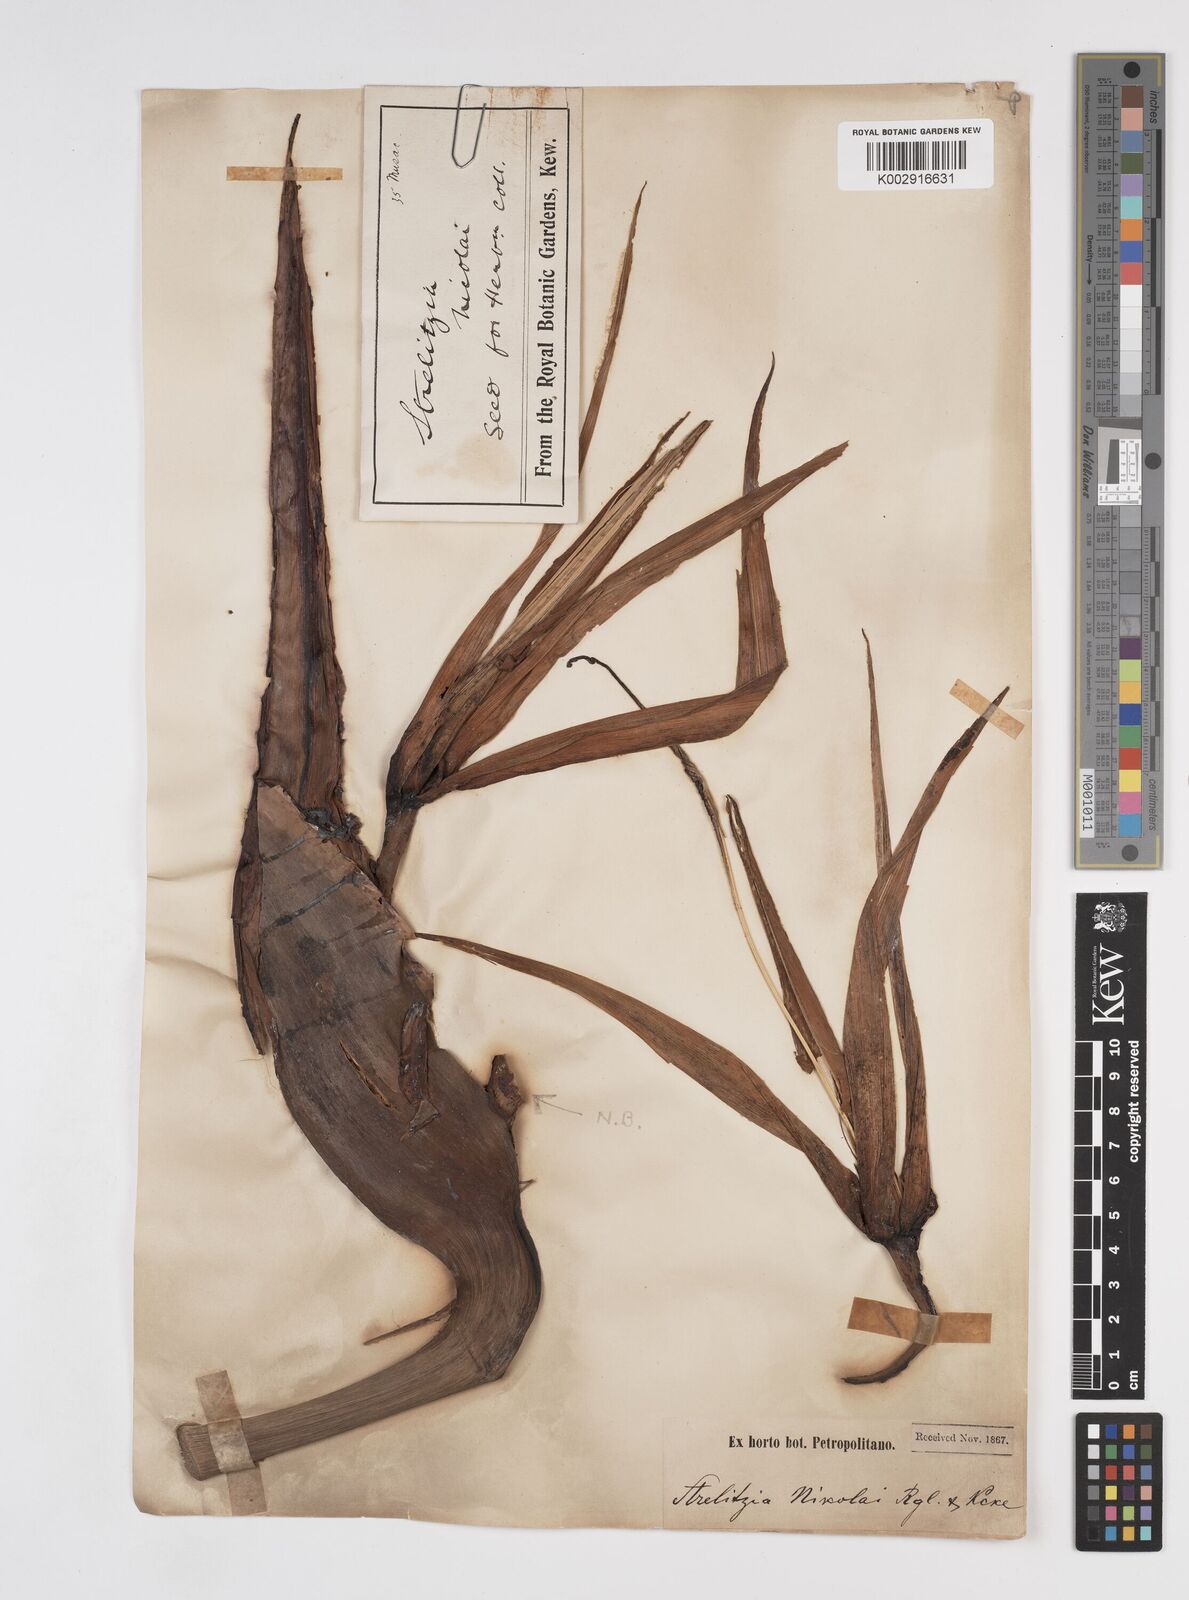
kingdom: Plantae
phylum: Tracheophyta
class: Liliopsida
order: Zingiberales
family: Strelitziaceae
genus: Strelitzia
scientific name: Strelitzia nicolai
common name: Bird-of-paradise tree
